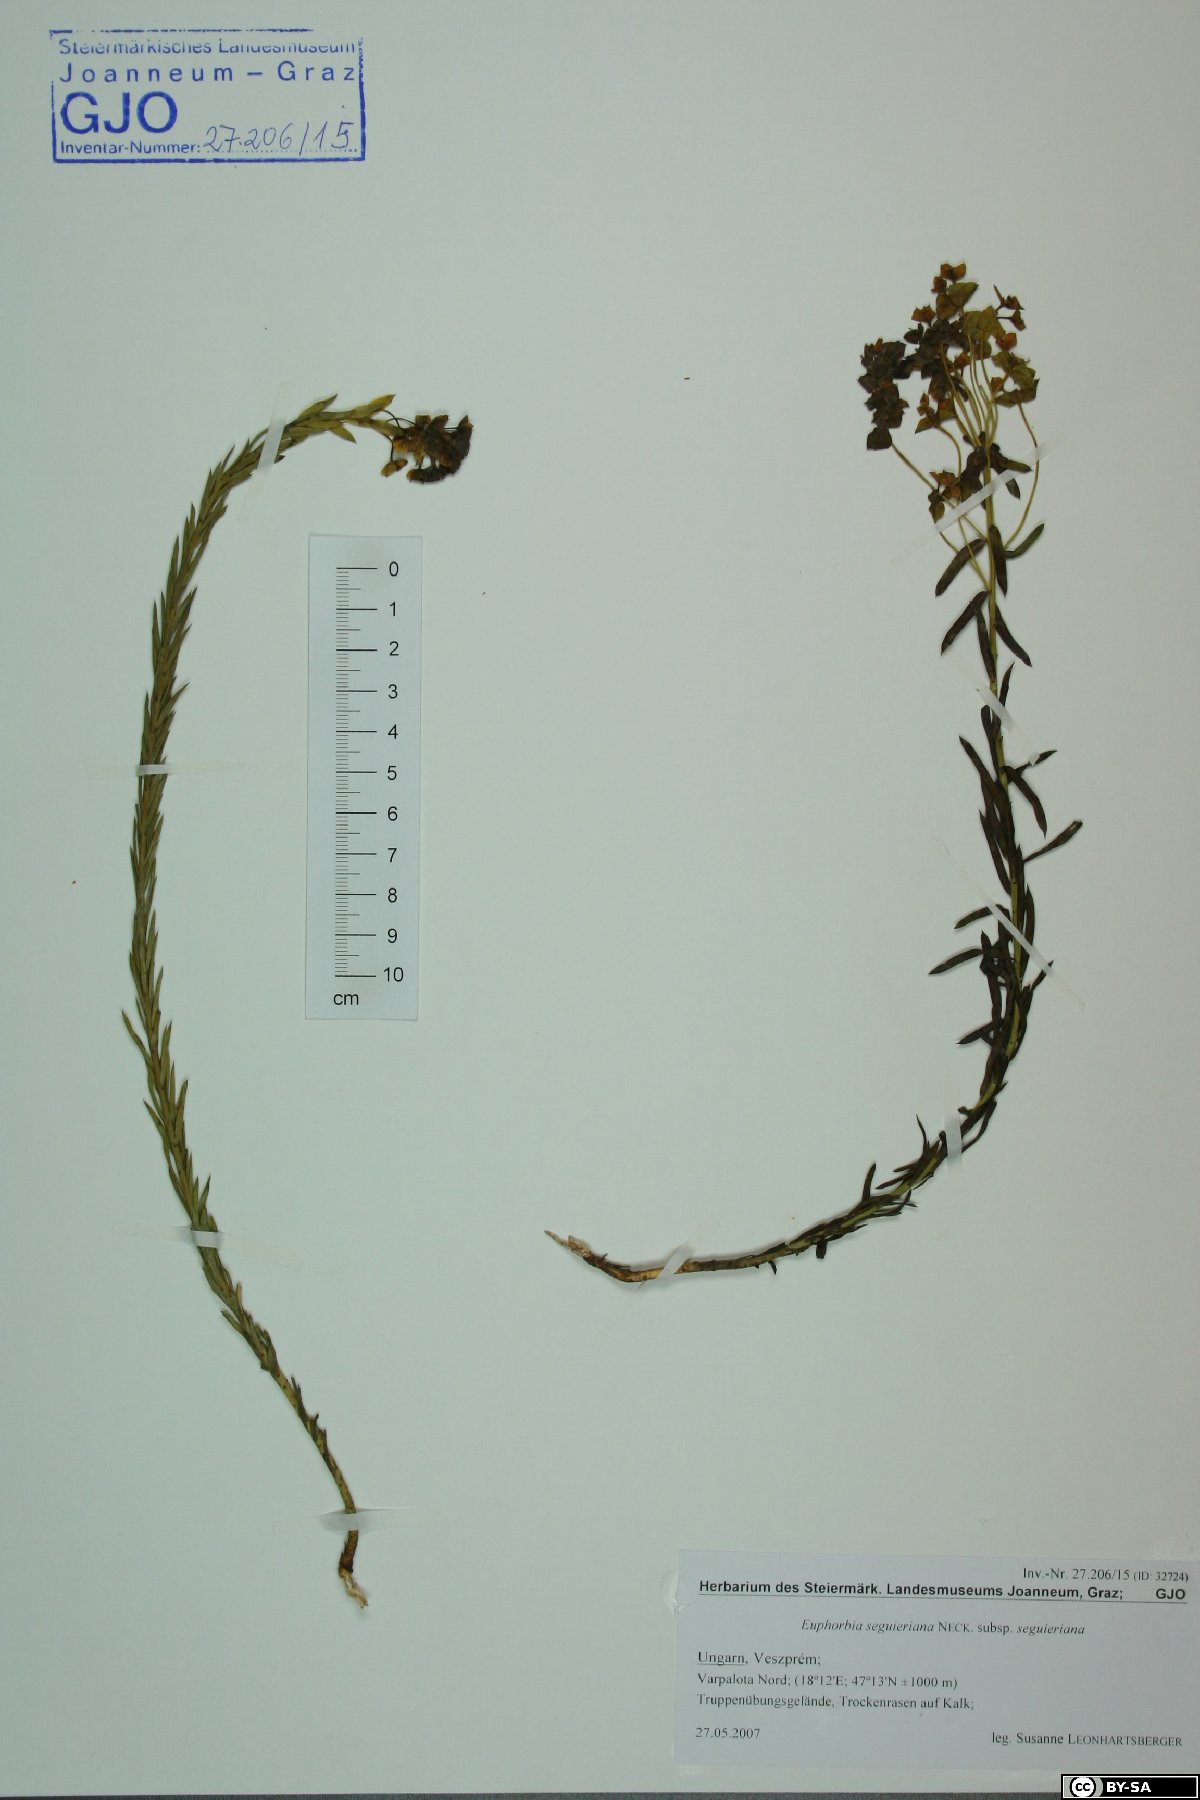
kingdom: Plantae
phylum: Tracheophyta
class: Magnoliopsida
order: Malpighiales
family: Euphorbiaceae
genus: Euphorbia
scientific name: Euphorbia seguieriana
